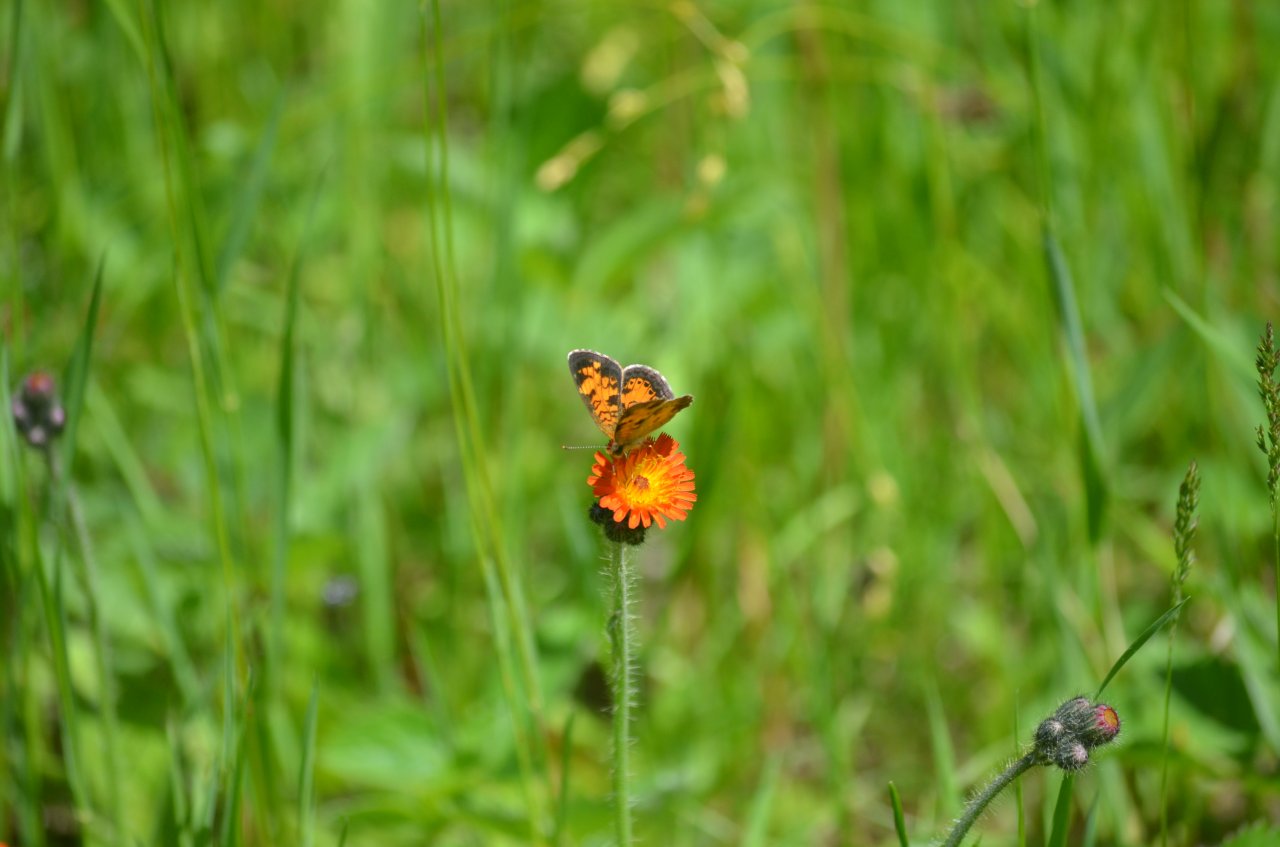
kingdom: Animalia
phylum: Arthropoda
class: Insecta
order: Lepidoptera
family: Nymphalidae
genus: Phyciodes
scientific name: Phyciodes tharos
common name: Northern Crescent
